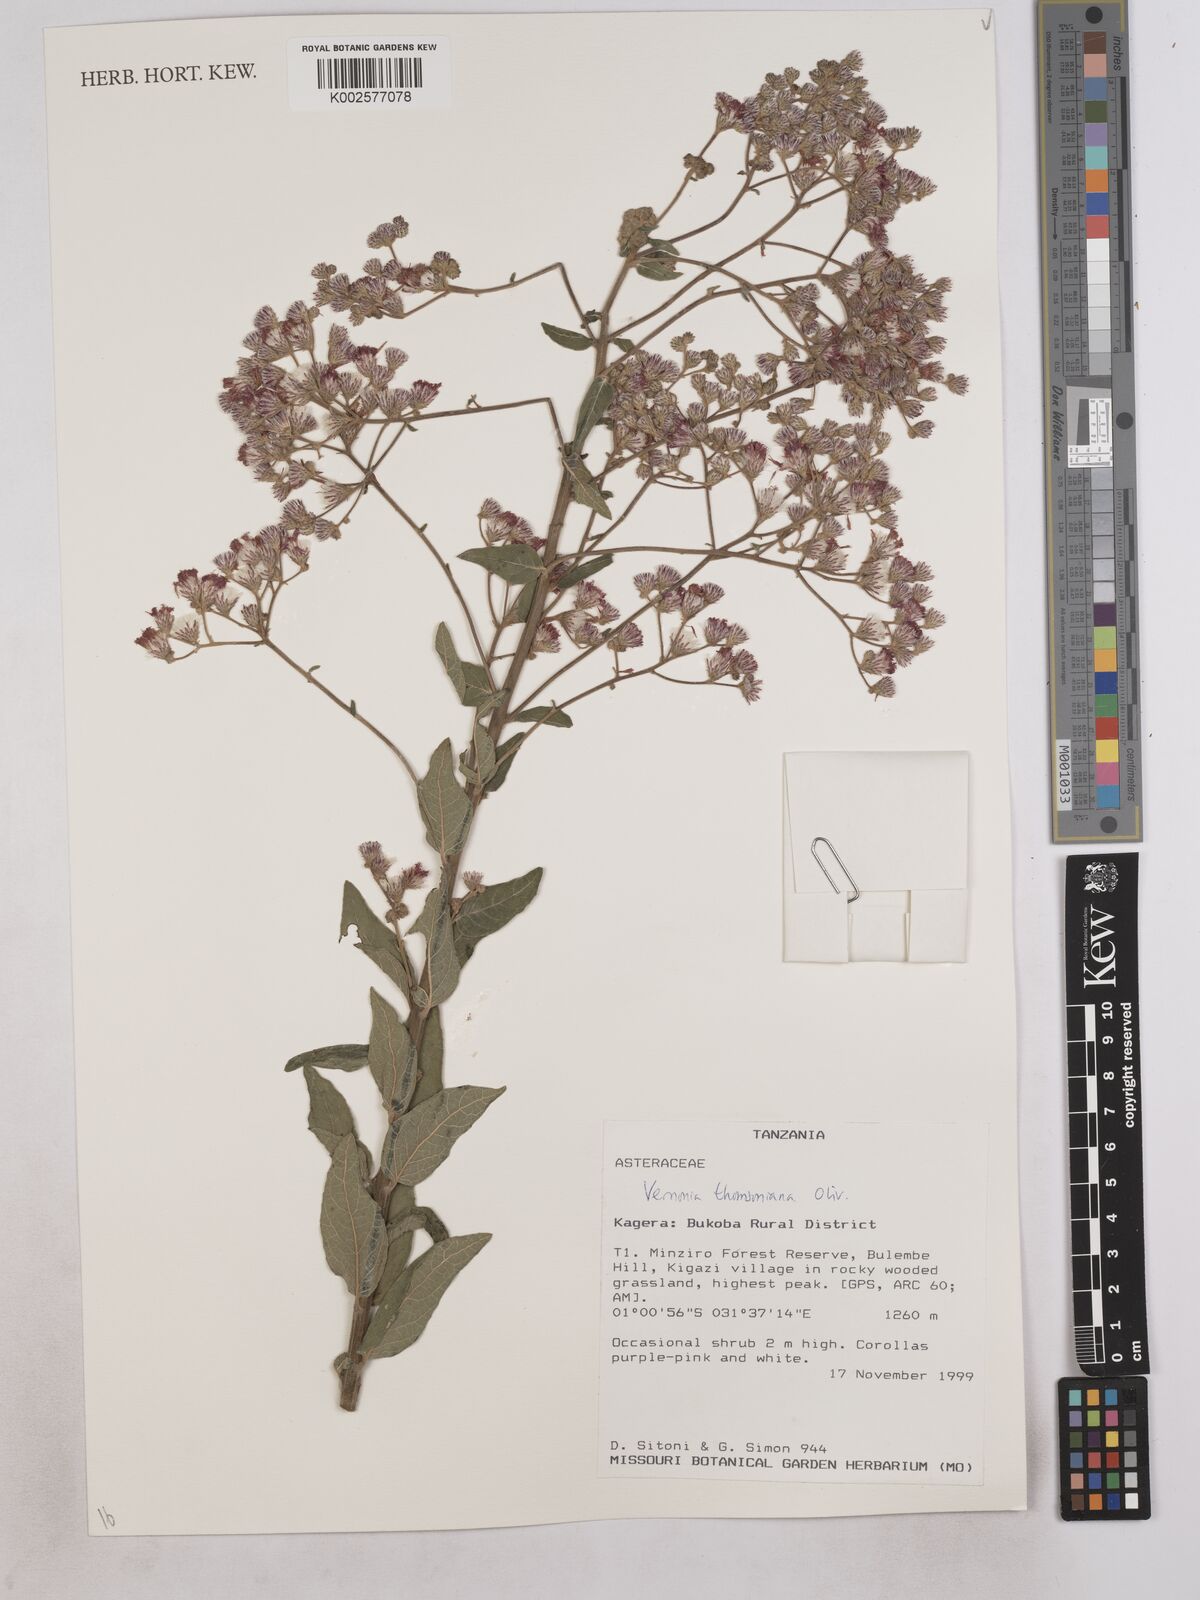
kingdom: Plantae
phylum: Tracheophyta
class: Magnoliopsida
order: Asterales
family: Asteraceae
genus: Gymnanthemum
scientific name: Gymnanthemum thomsonianum
